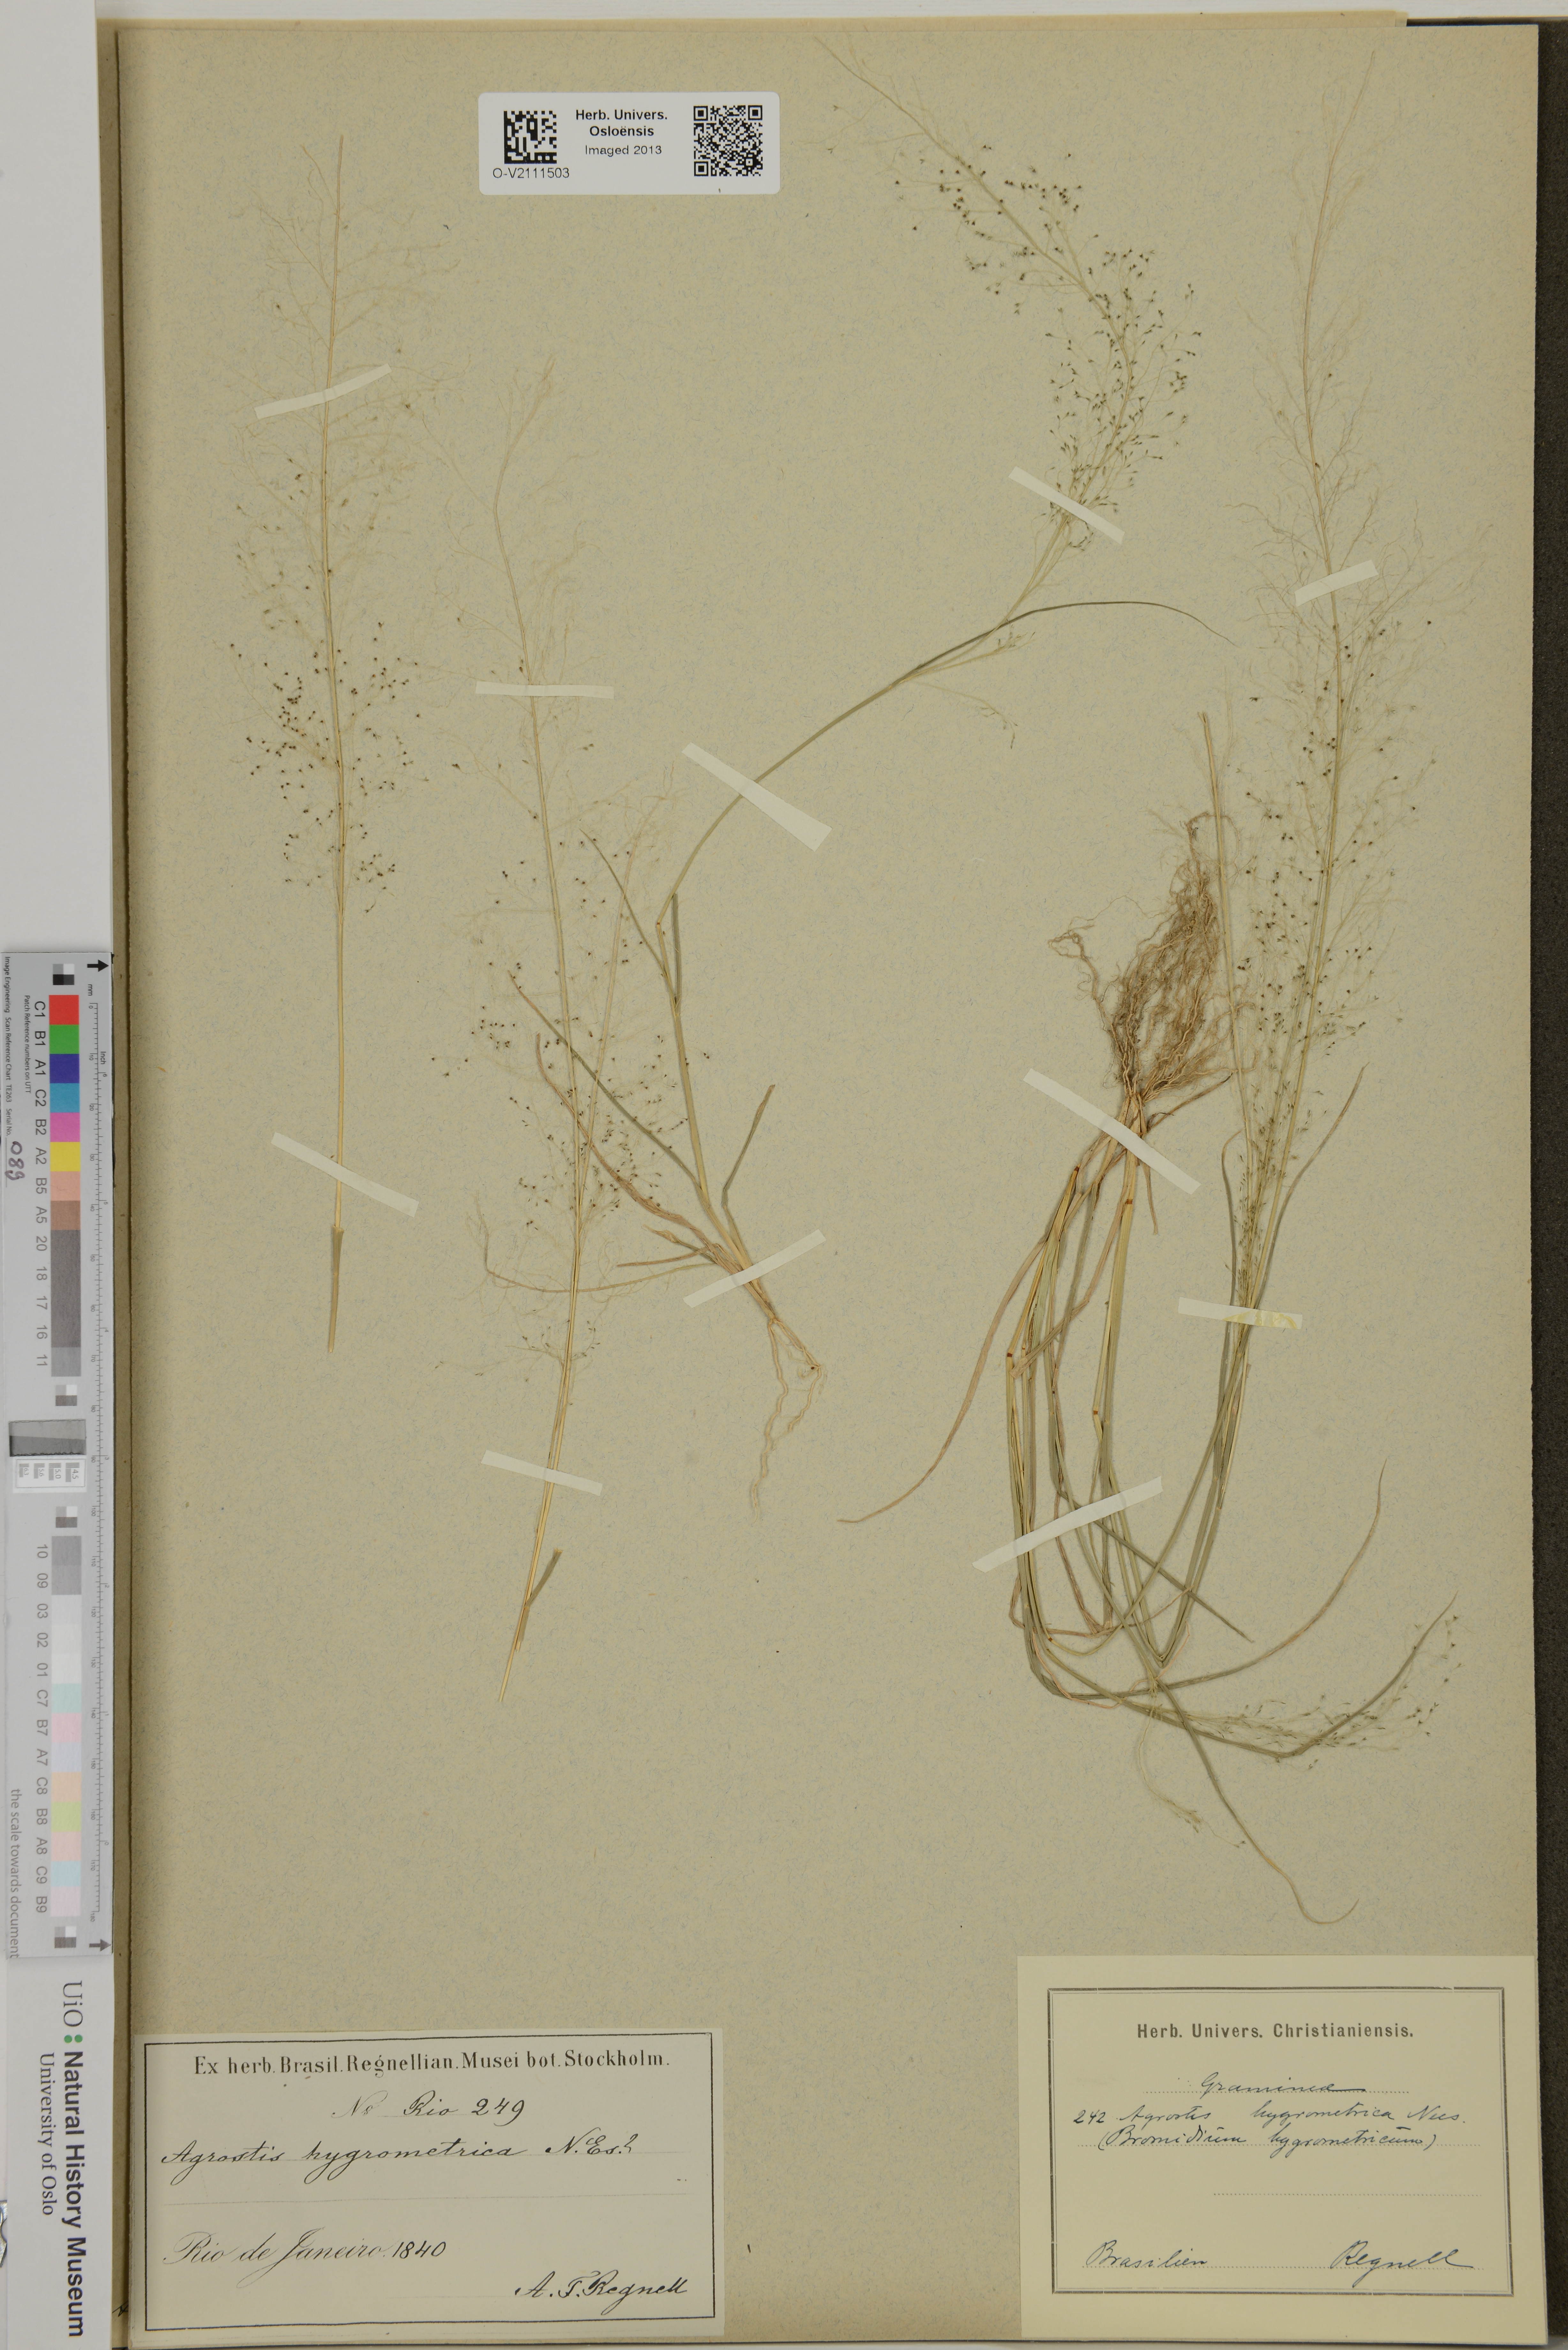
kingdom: Plantae
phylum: Tracheophyta
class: Liliopsida
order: Poales
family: Poaceae
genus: Agrostis
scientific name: Agrostis hygrometrica
